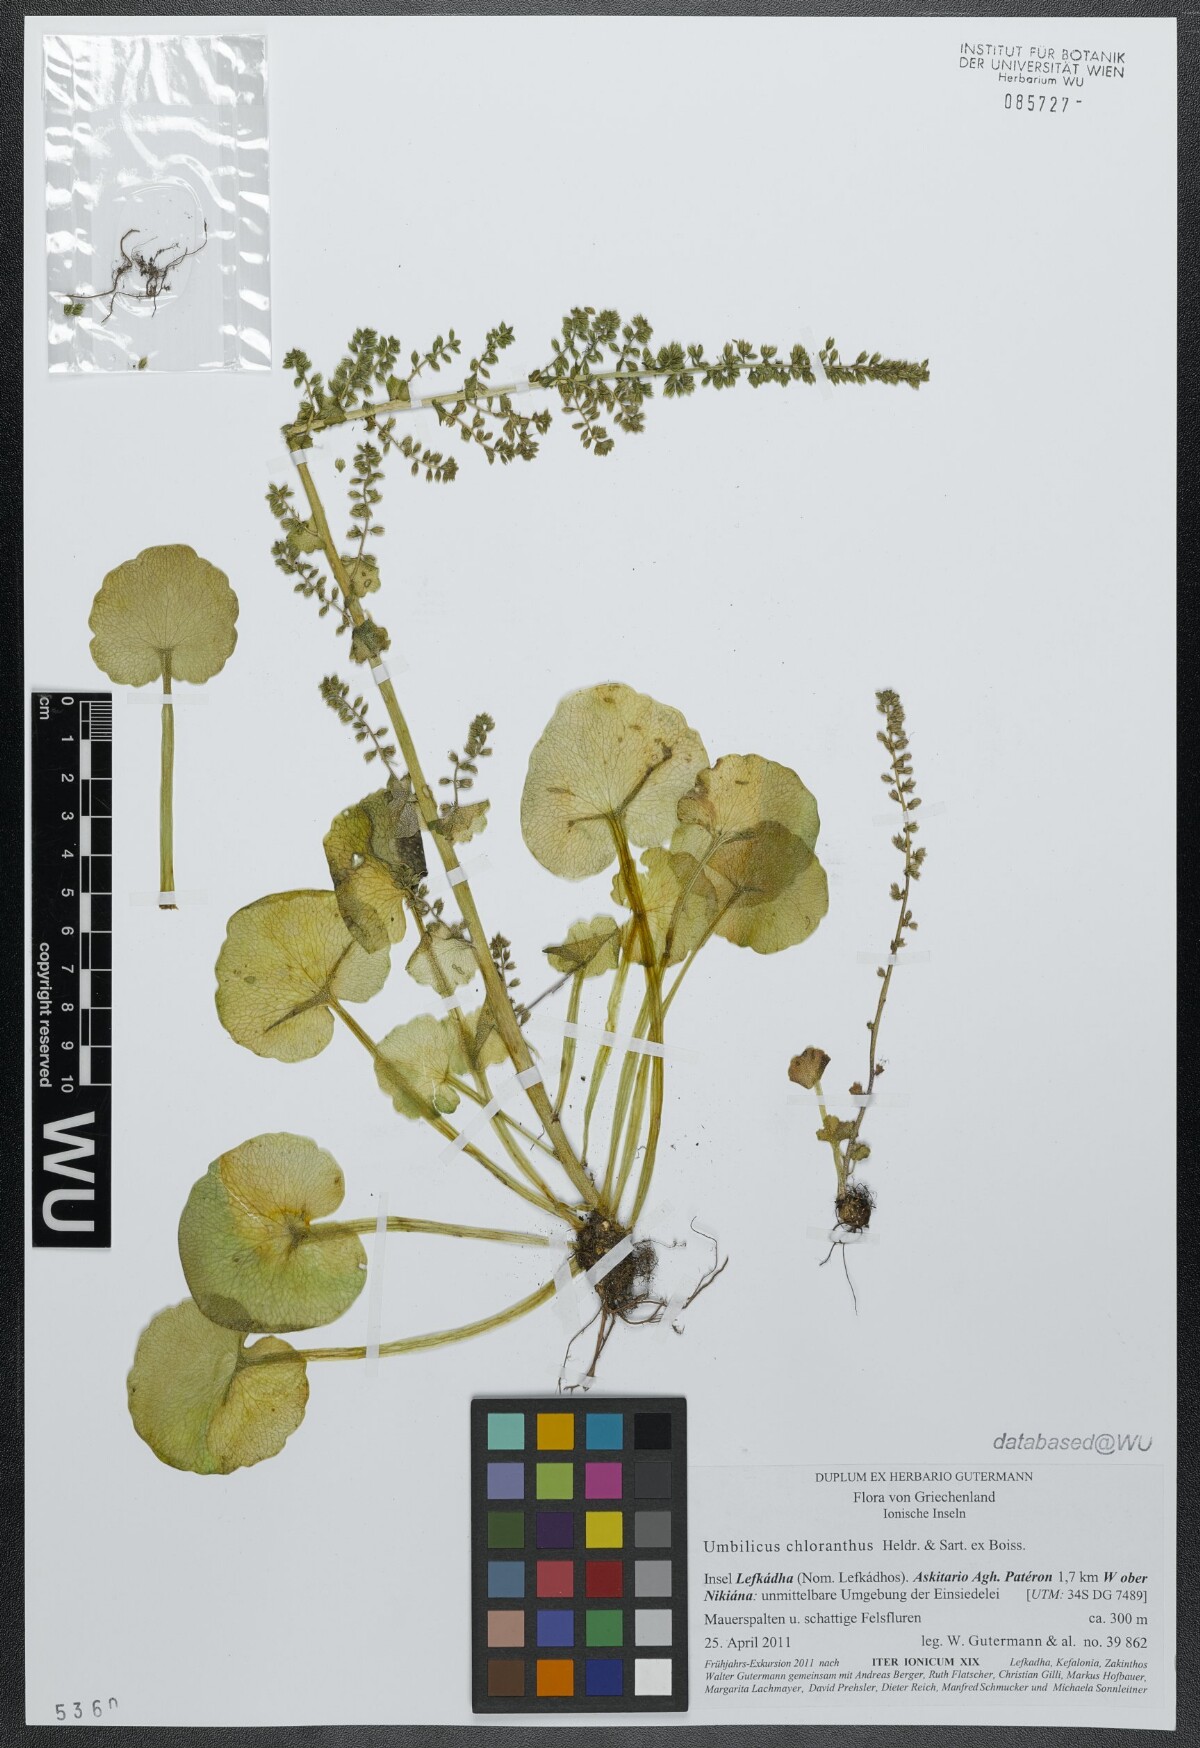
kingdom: Plantae
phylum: Tracheophyta
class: Magnoliopsida
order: Saxifragales
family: Crassulaceae
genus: Umbilicus
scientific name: Umbilicus chloranthus
